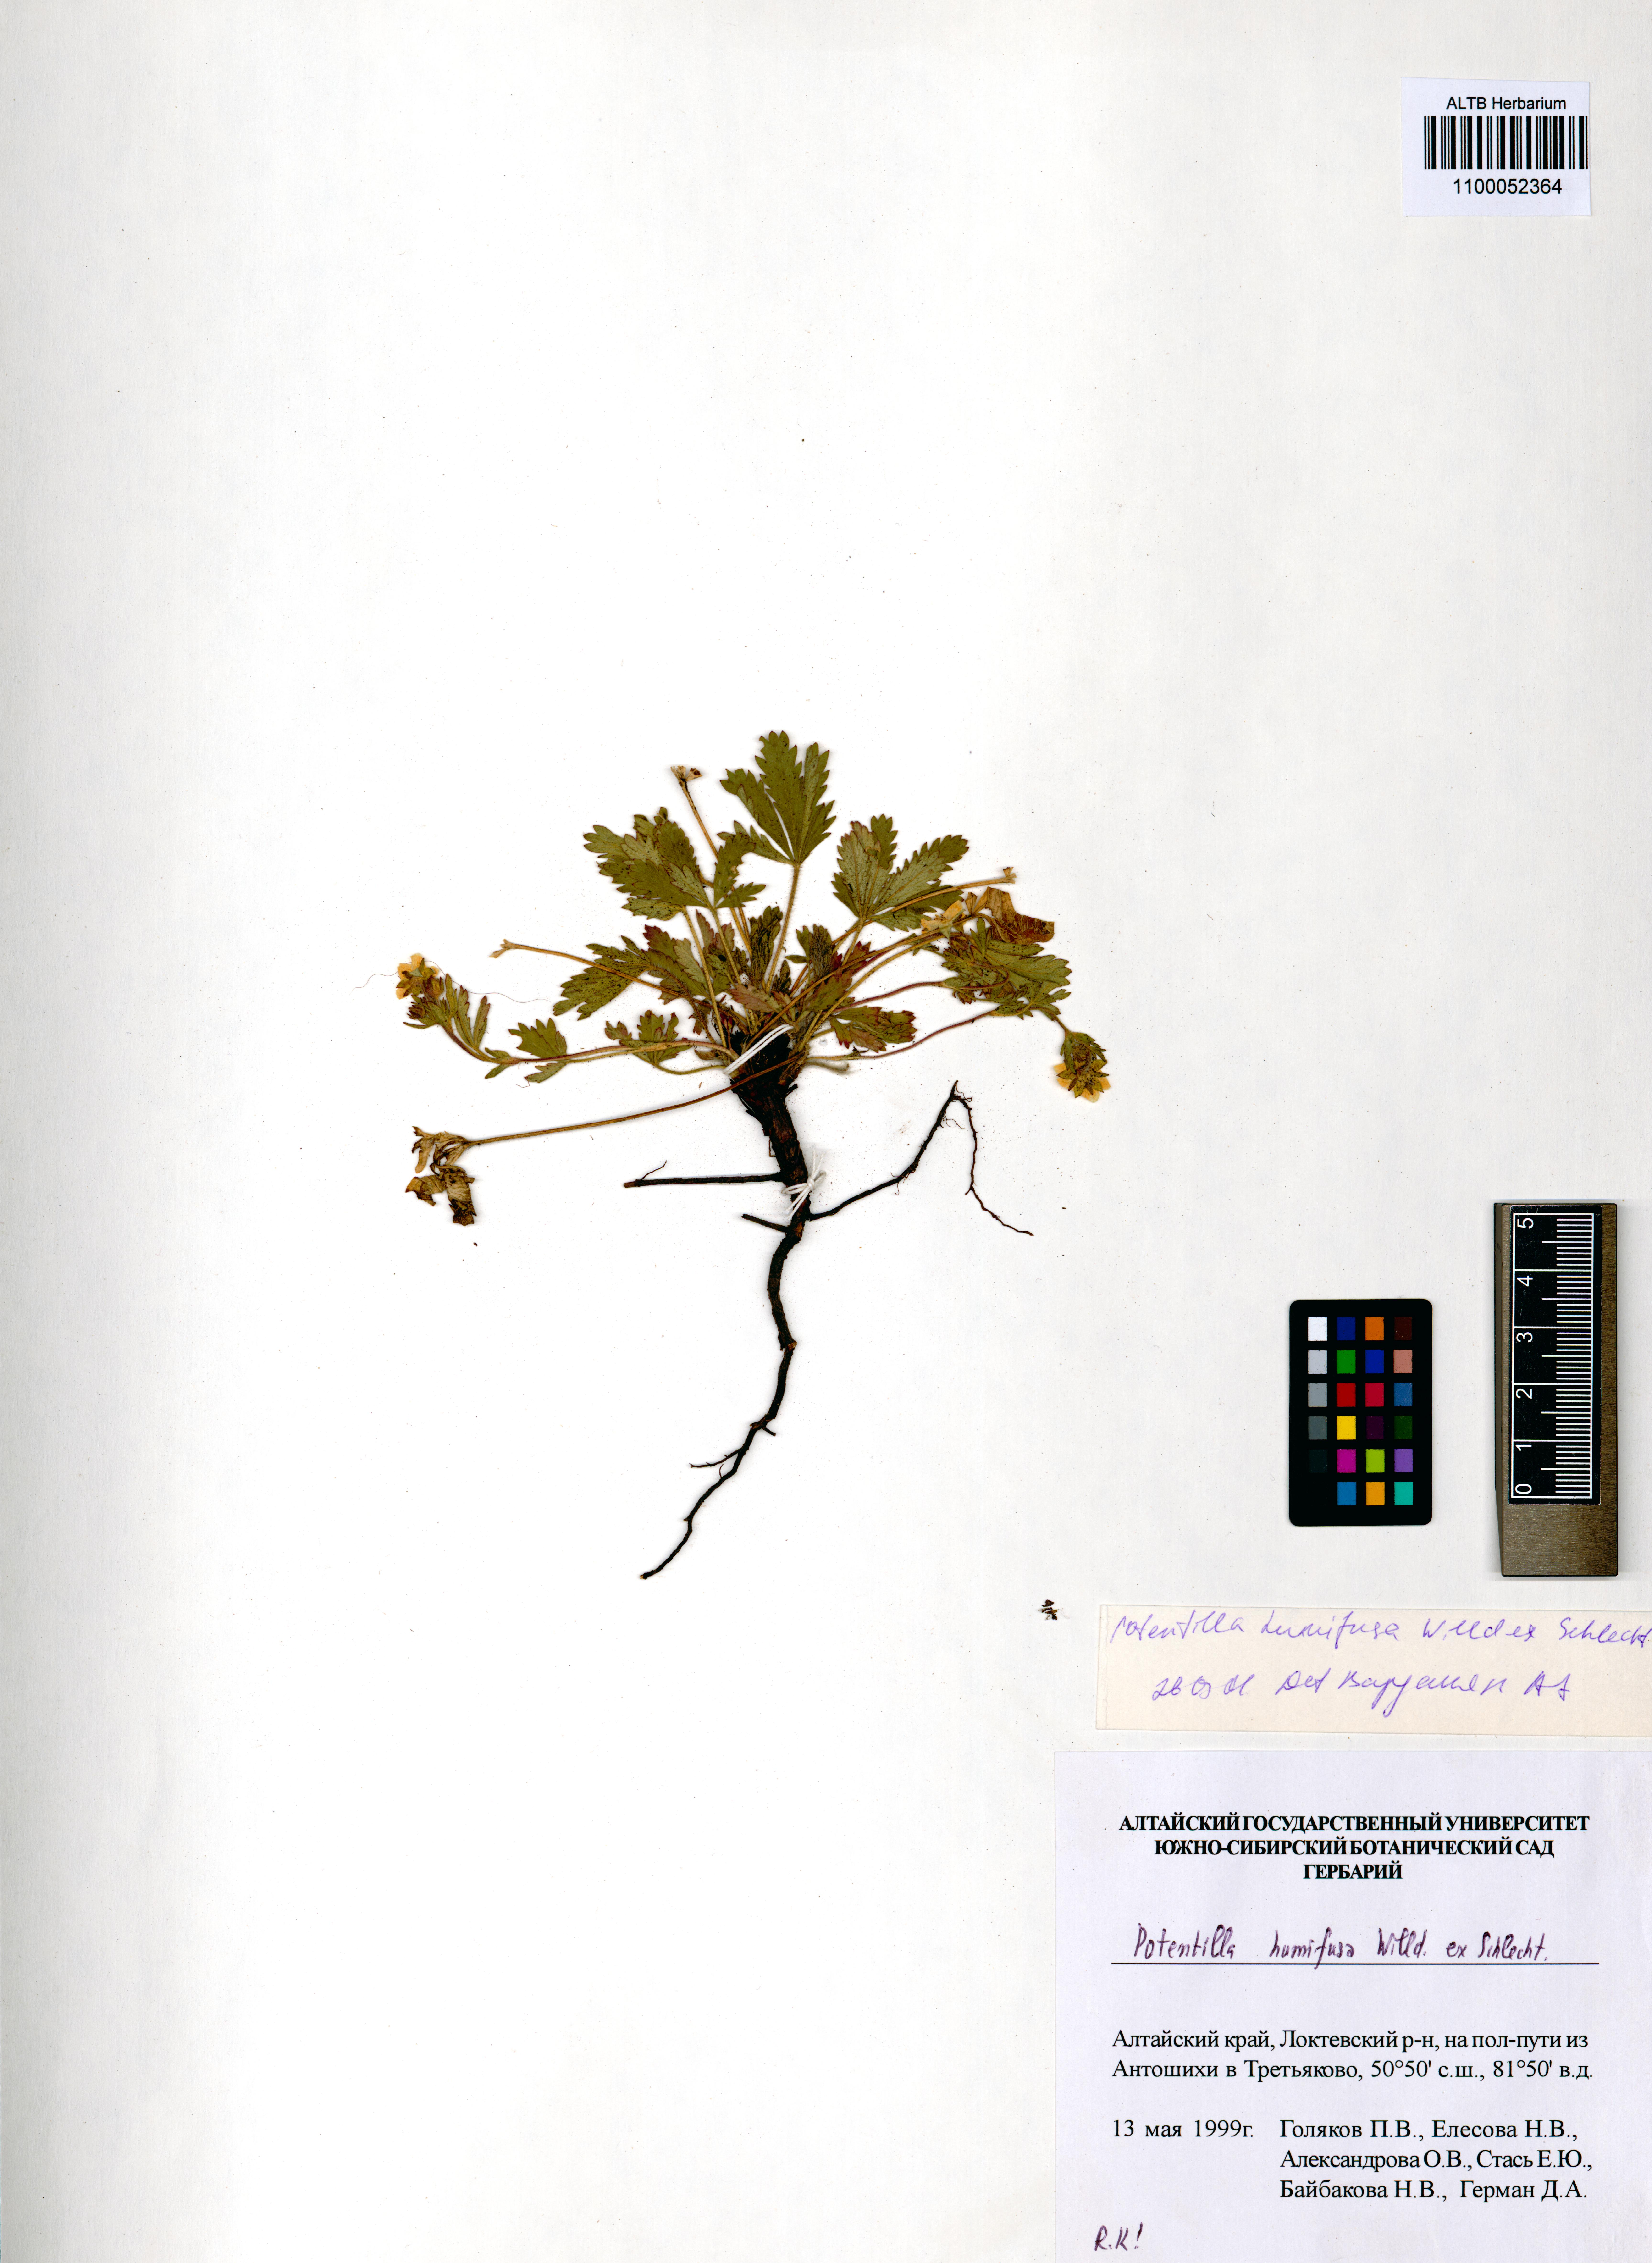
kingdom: Plantae
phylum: Tracheophyta
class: Magnoliopsida
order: Rosales
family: Rosaceae
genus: Potentilla
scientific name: Potentilla humifusa
